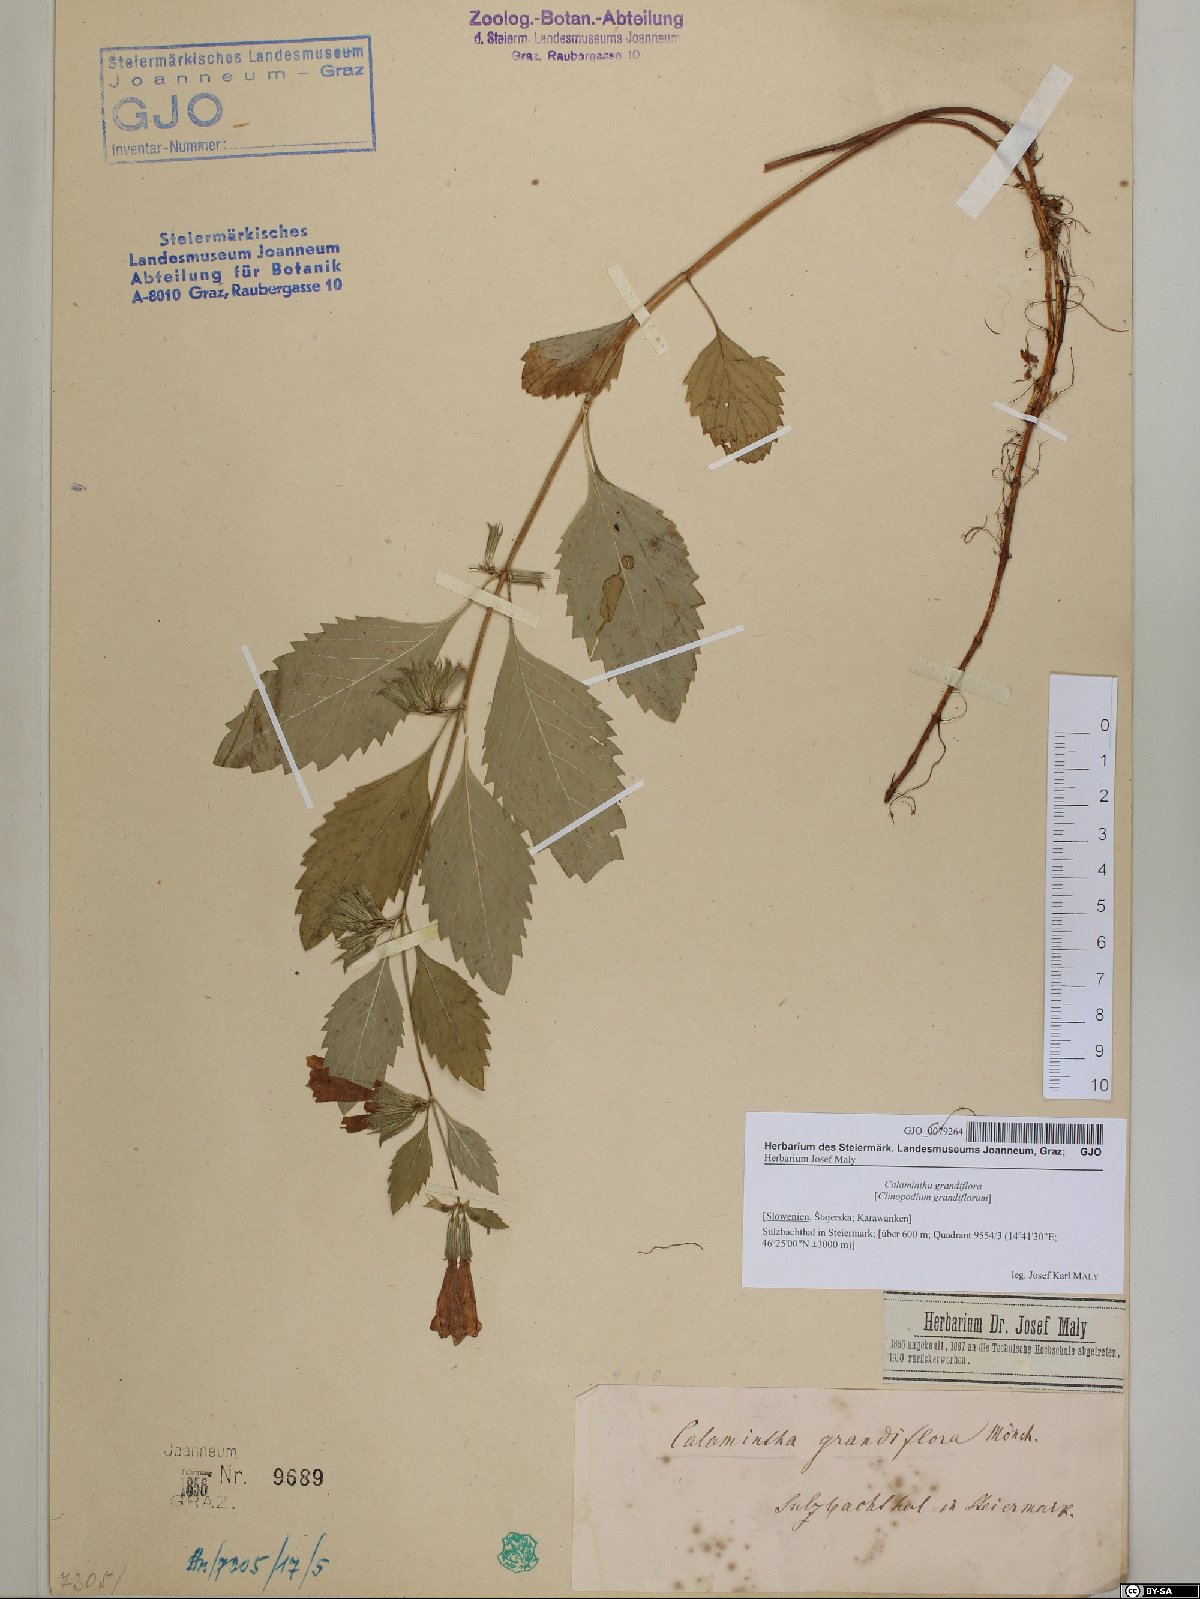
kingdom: Plantae
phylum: Tracheophyta
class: Magnoliopsida
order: Lamiales
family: Lamiaceae
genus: Clinopodium
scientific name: Clinopodium grandiflorum
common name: Greater calamint
